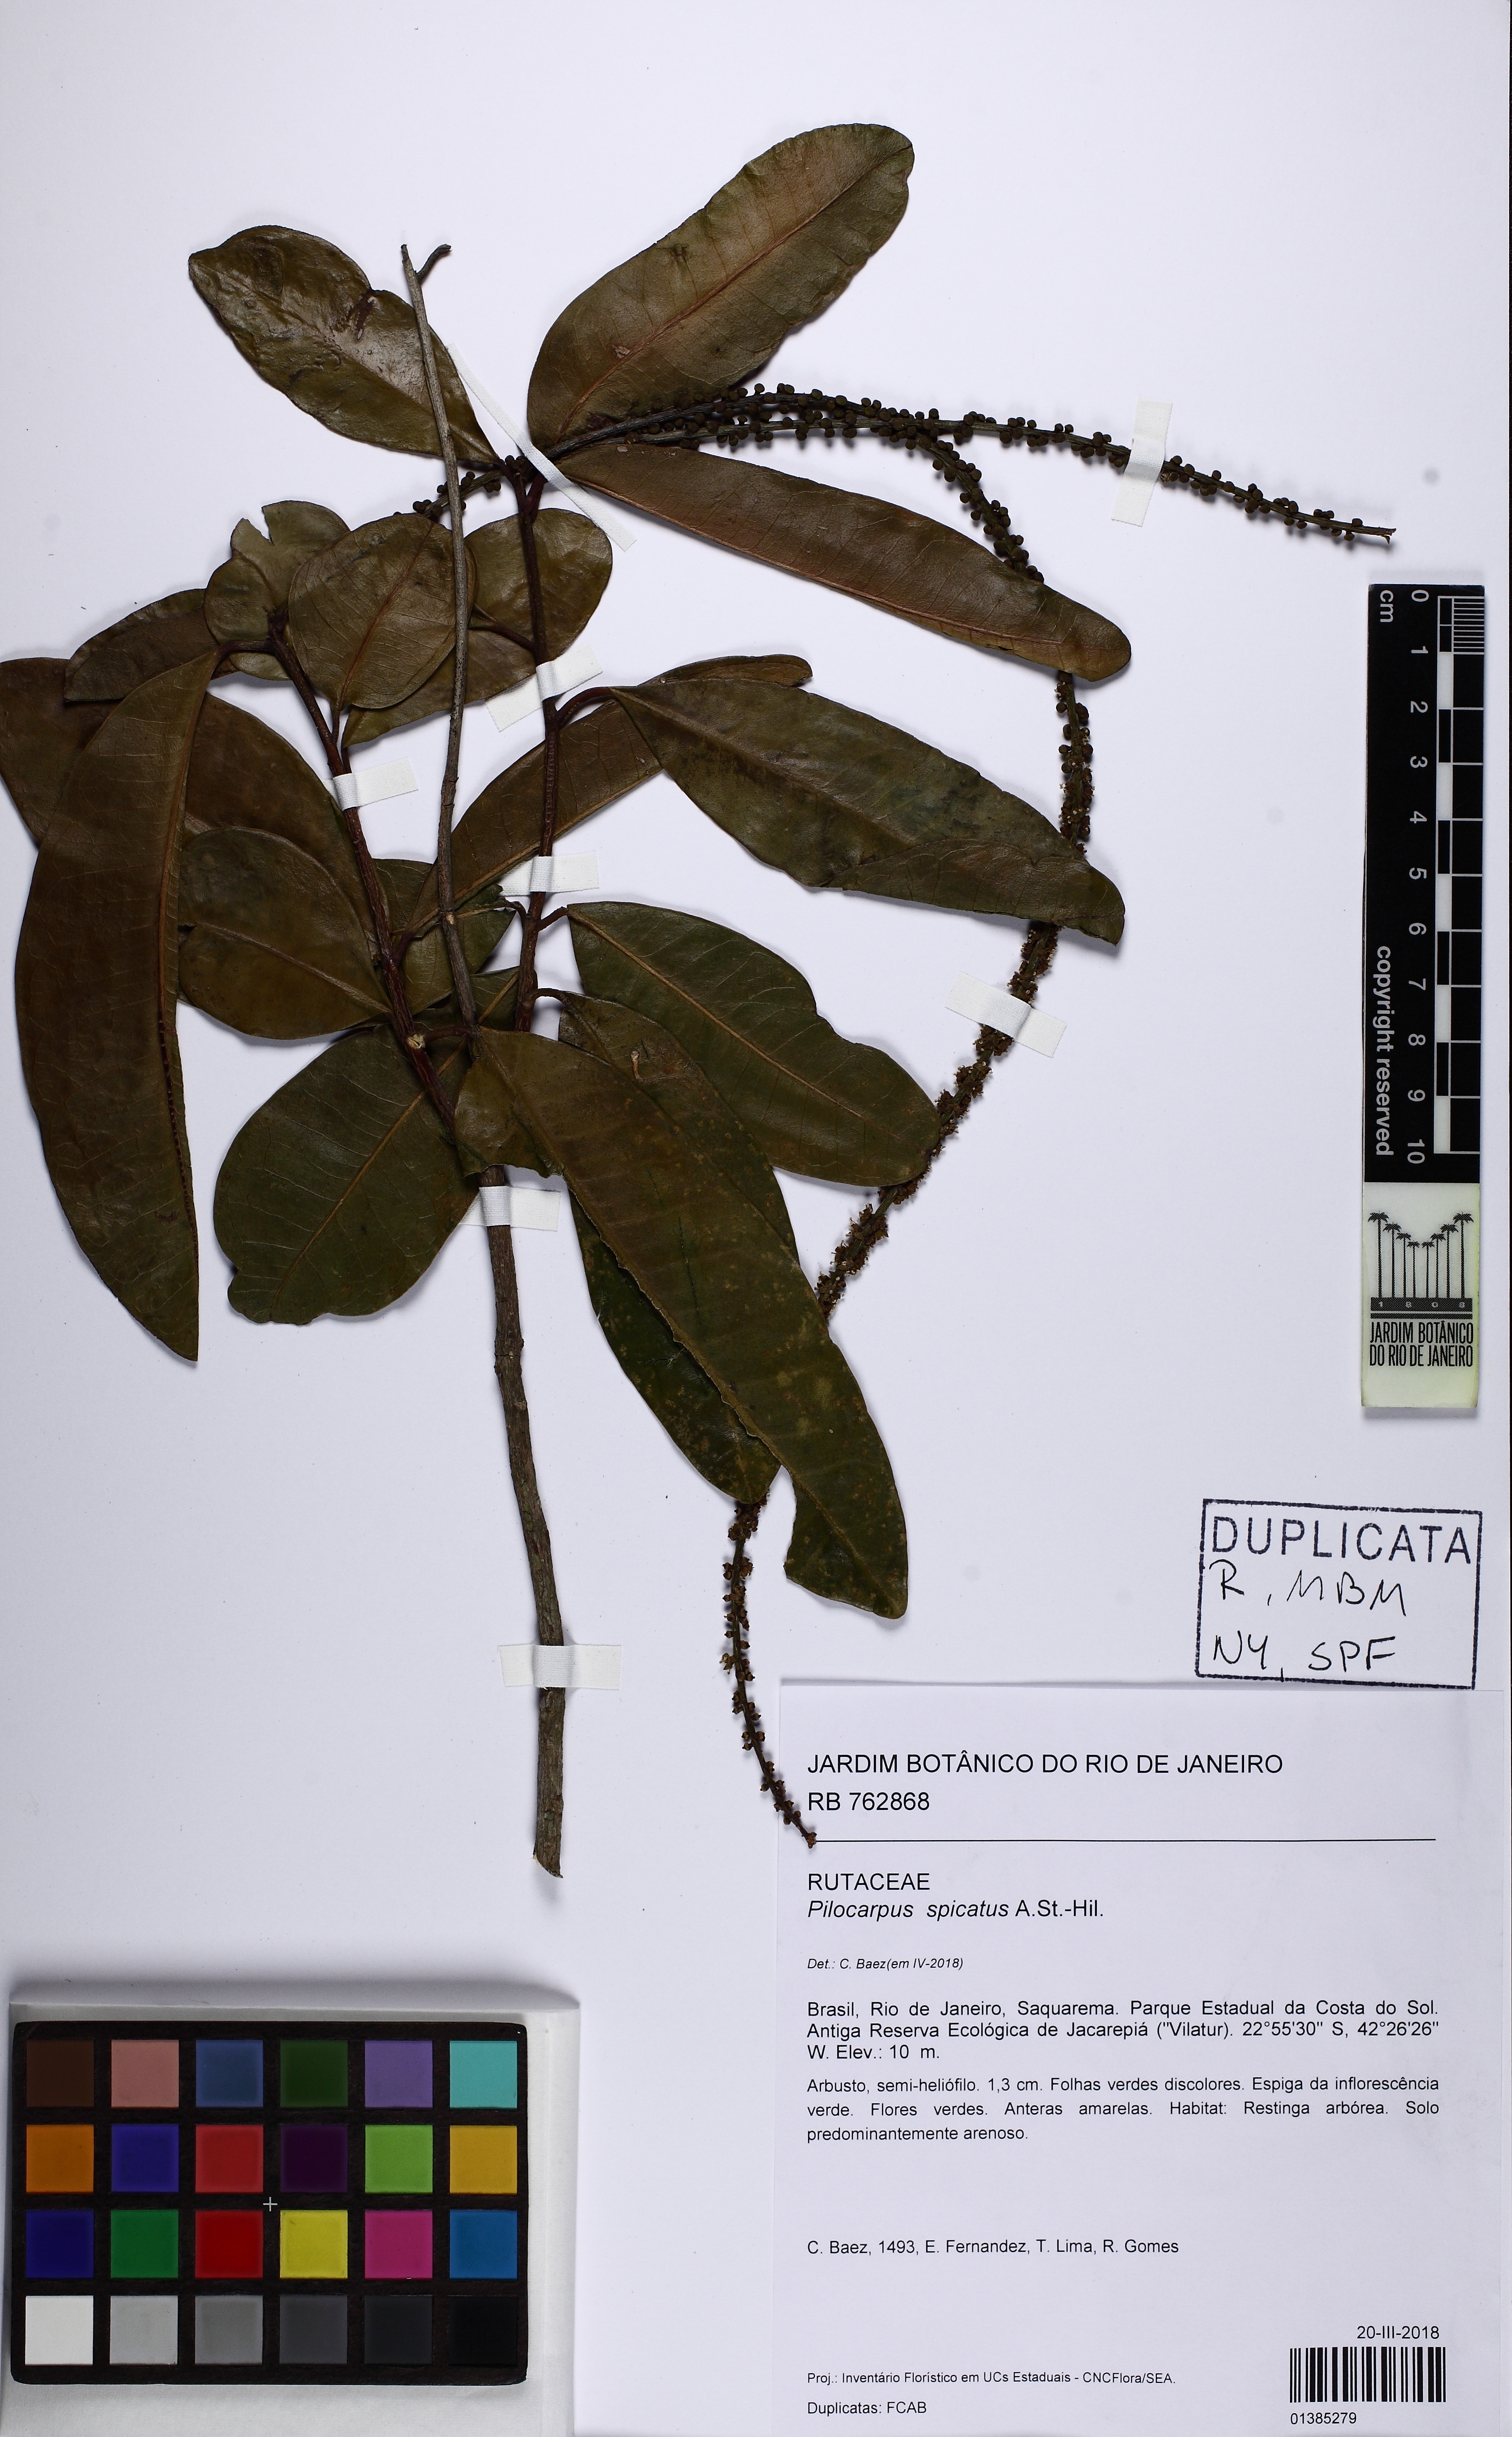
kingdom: Plantae
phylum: Tracheophyta
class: Magnoliopsida
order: Sapindales
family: Rutaceae
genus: Pilocarpus
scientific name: Pilocarpus spicatus
